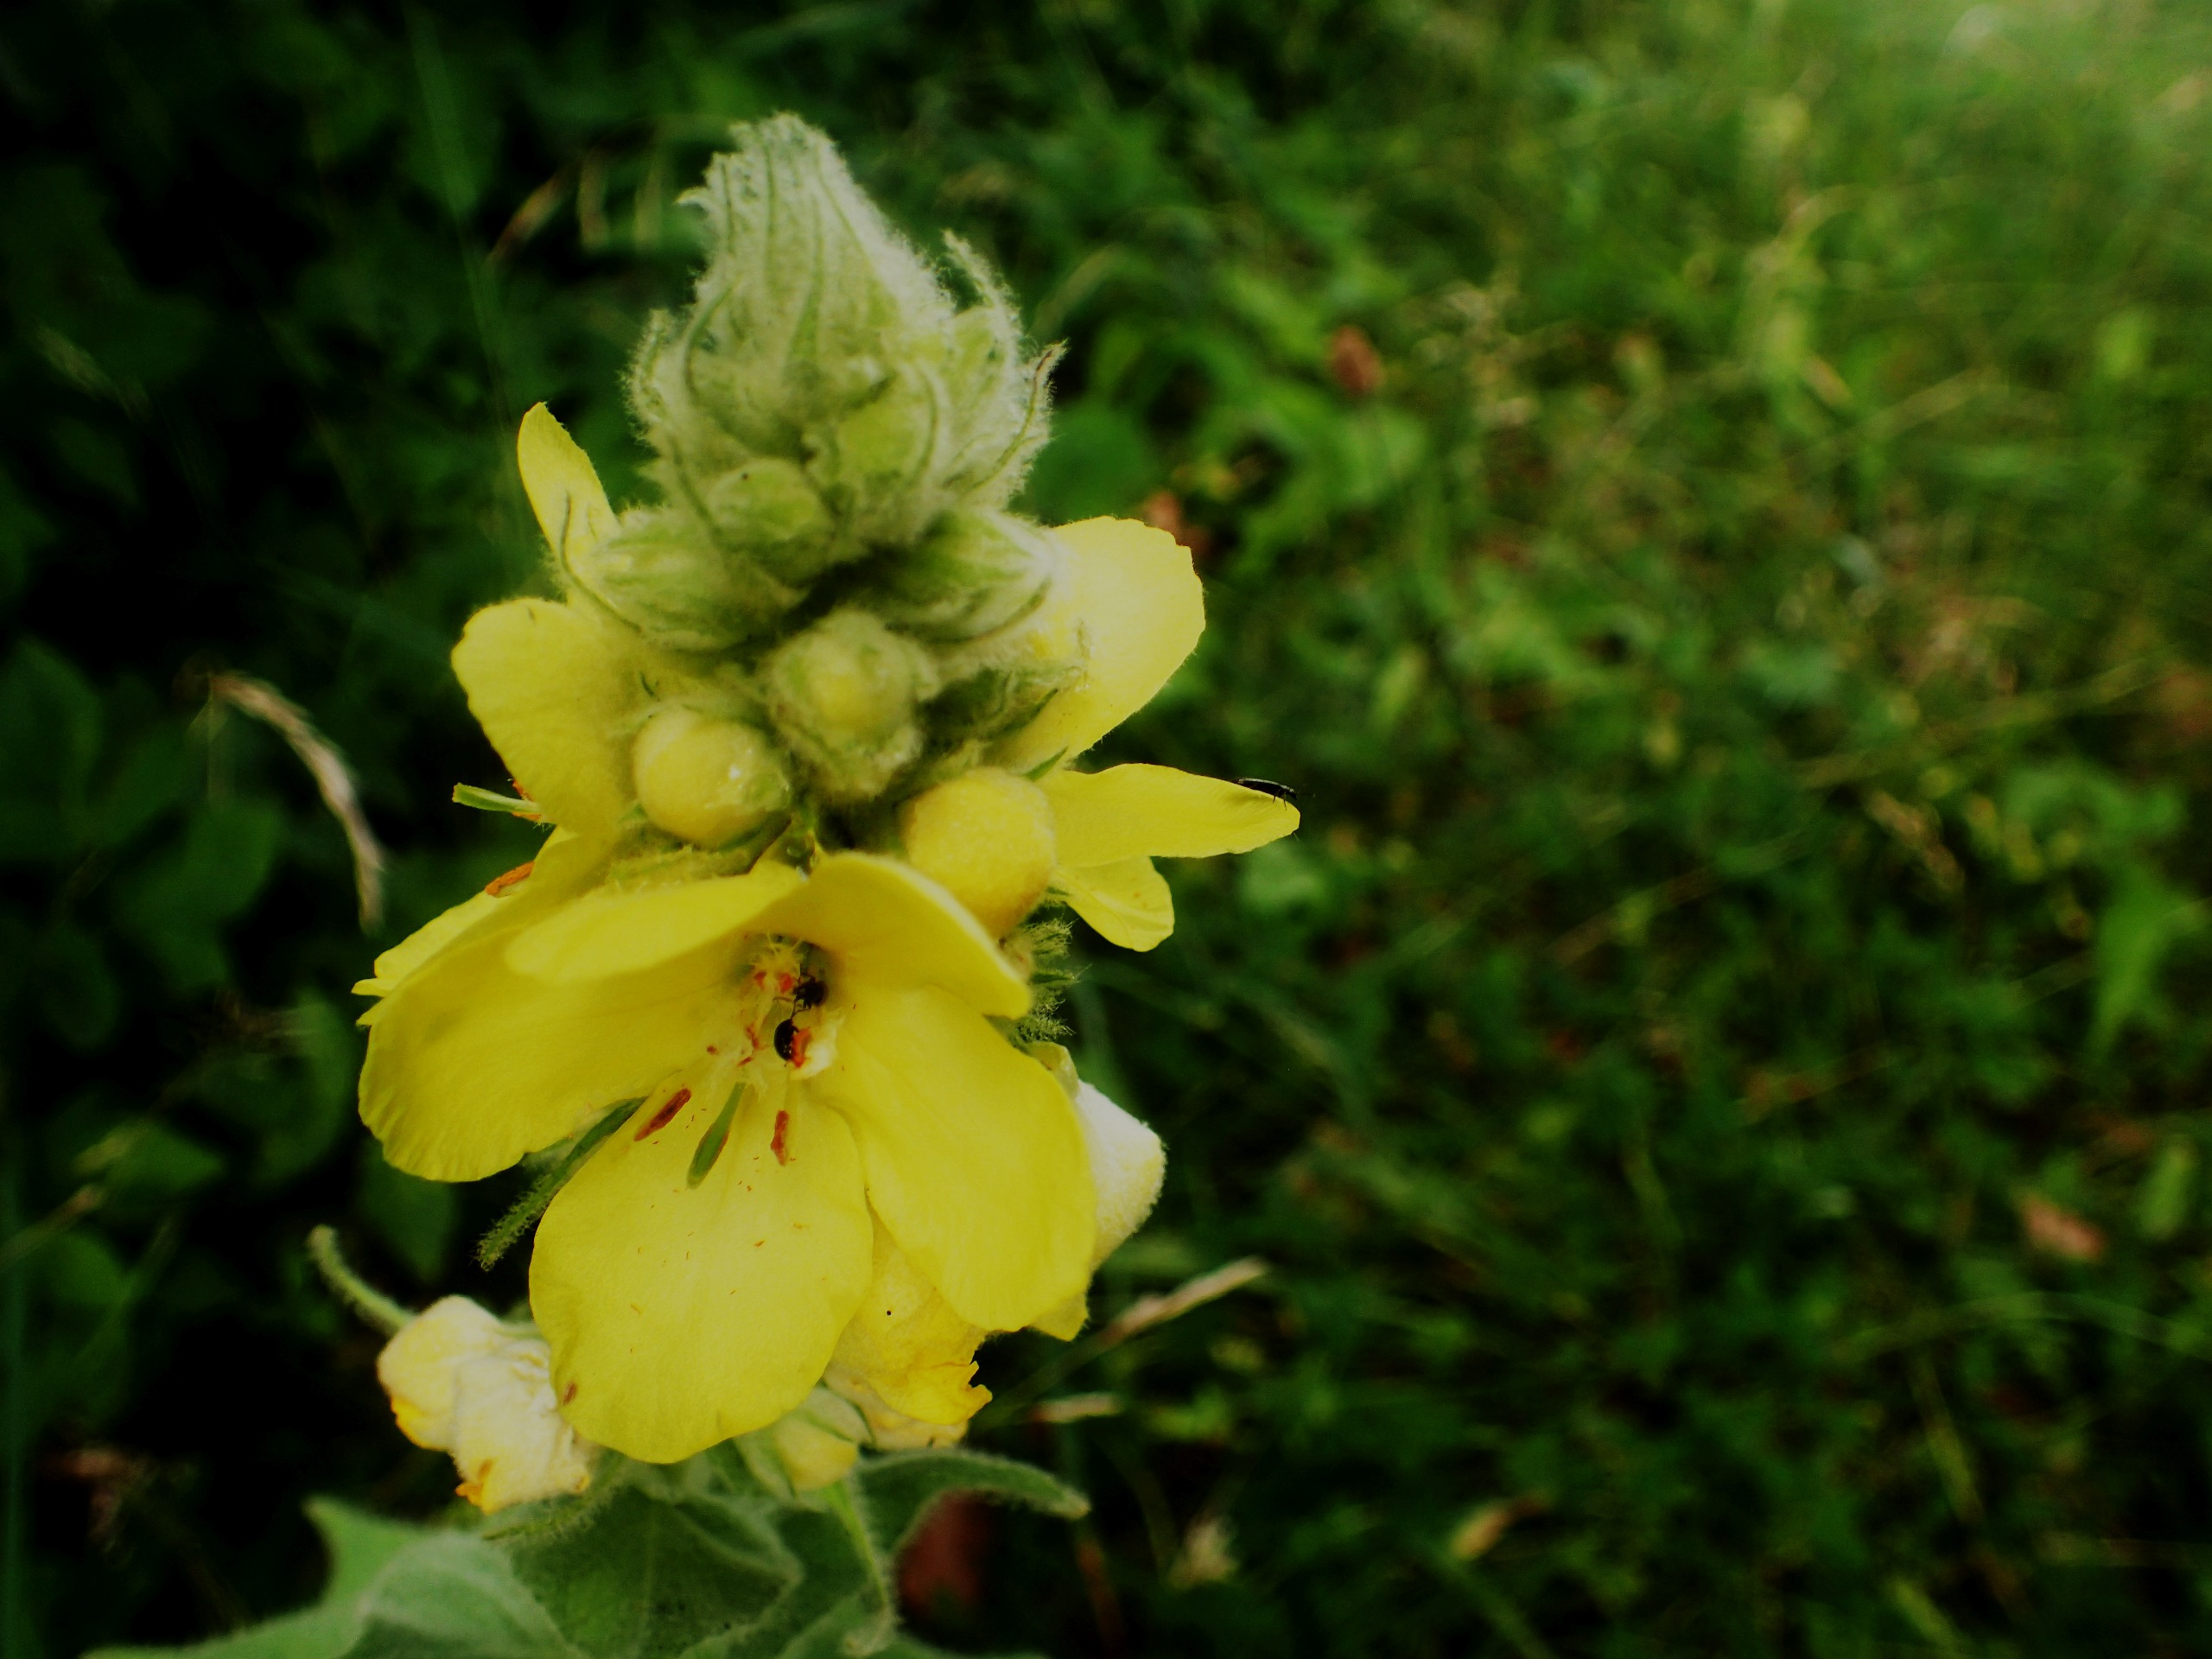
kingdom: Plantae
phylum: Tracheophyta
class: Magnoliopsida
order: Lamiales
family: Scrophulariaceae
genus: Verbascum
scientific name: Verbascum densiflorum
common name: Uldbladet kongelys
